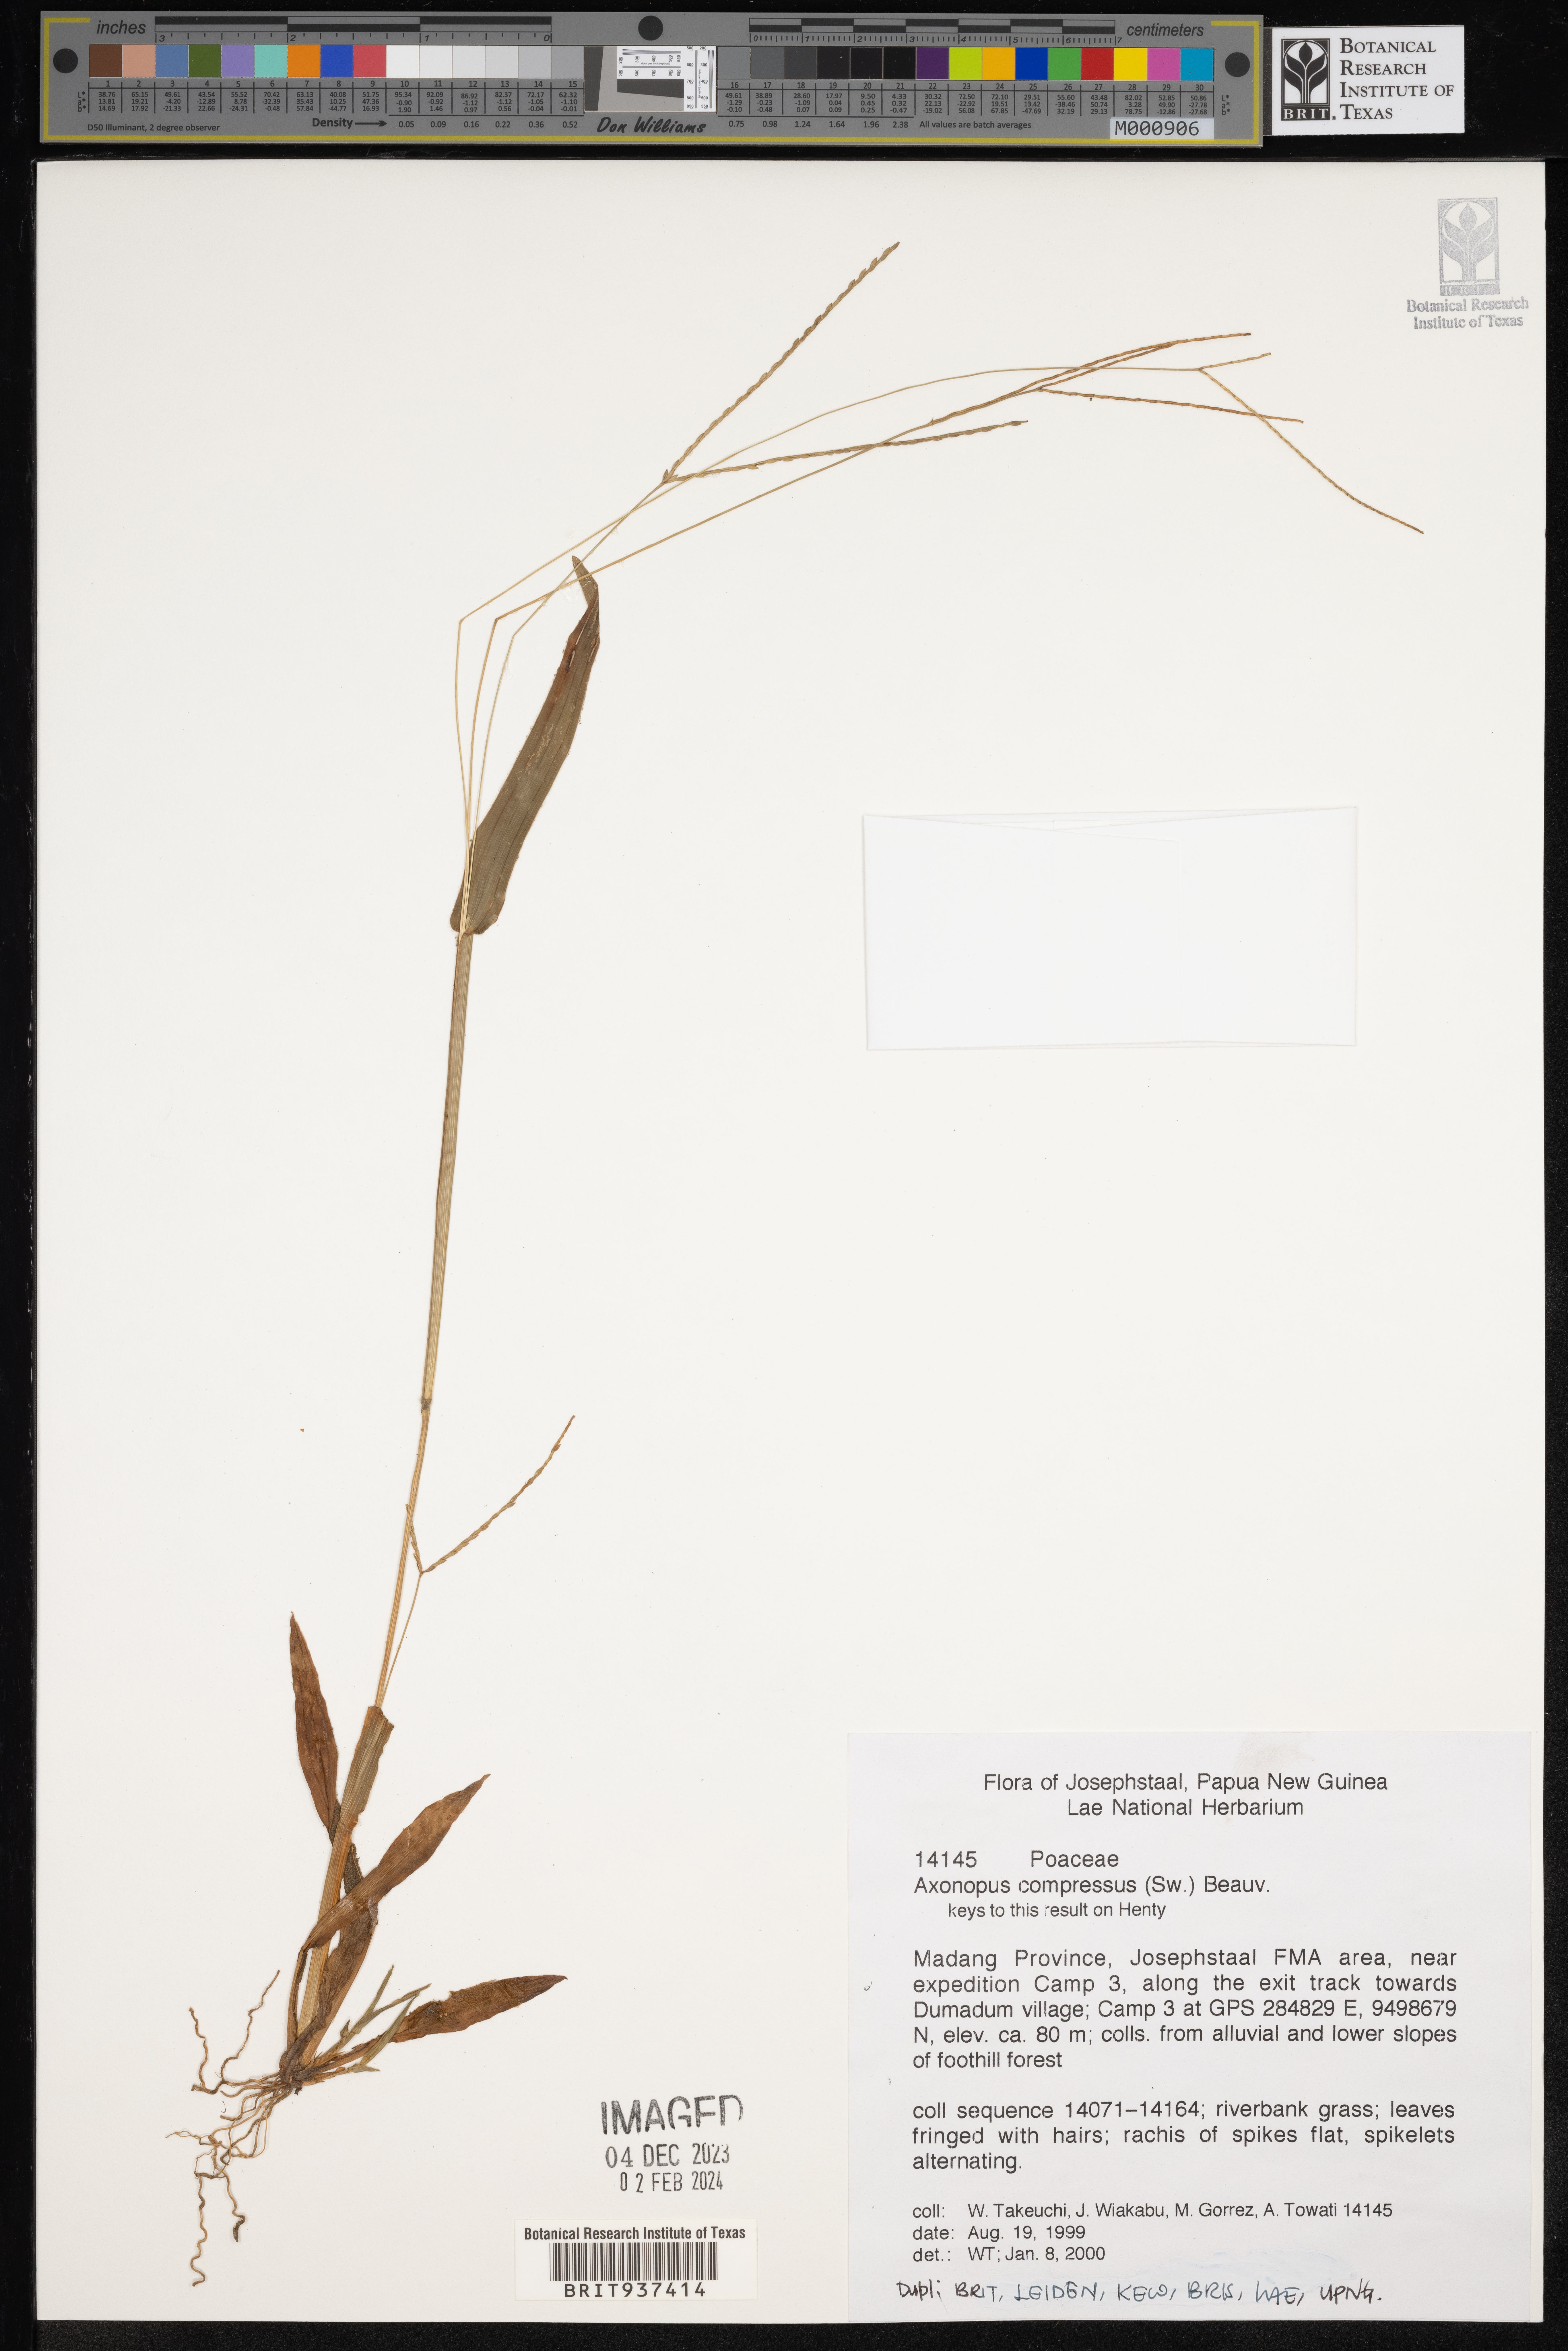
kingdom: Plantae
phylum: Tracheophyta
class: Liliopsida
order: Poales
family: Poaceae
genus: Axonopus
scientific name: Axonopus
